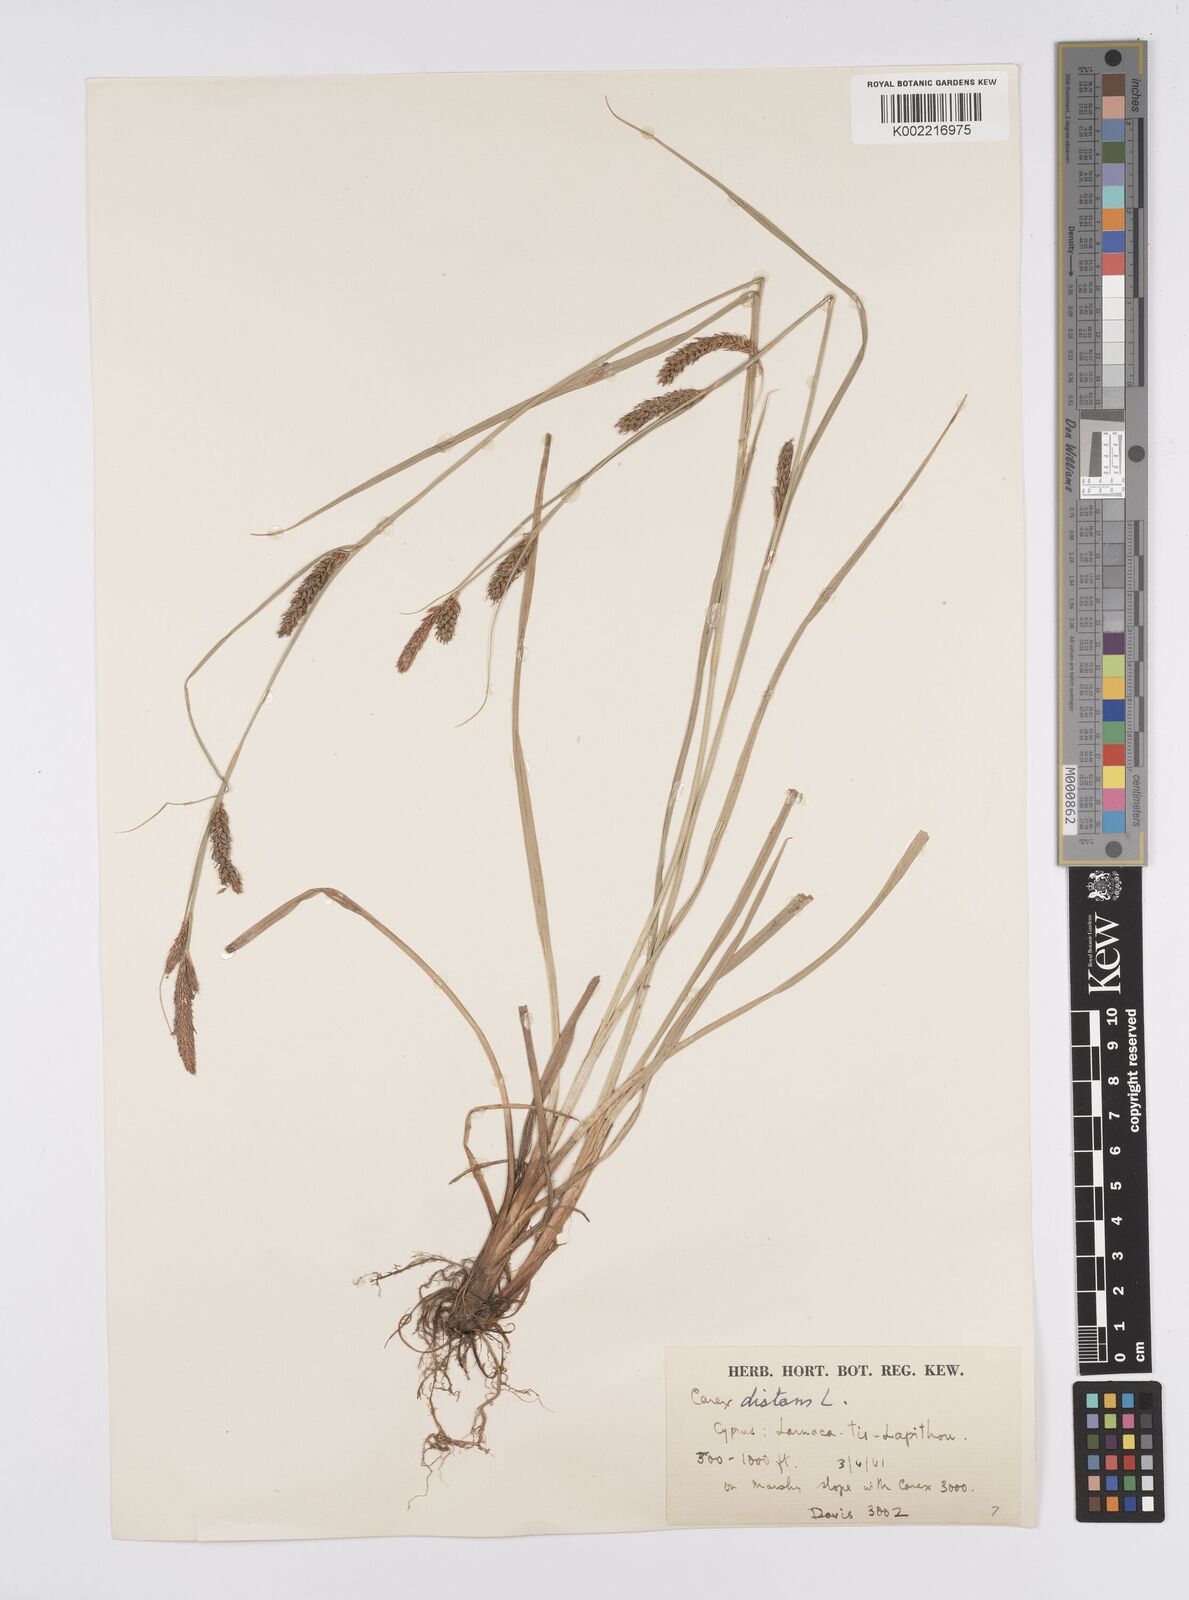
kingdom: Plantae
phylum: Tracheophyta
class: Liliopsida
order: Poales
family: Cyperaceae
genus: Carex
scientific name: Carex distans
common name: Distant sedge
